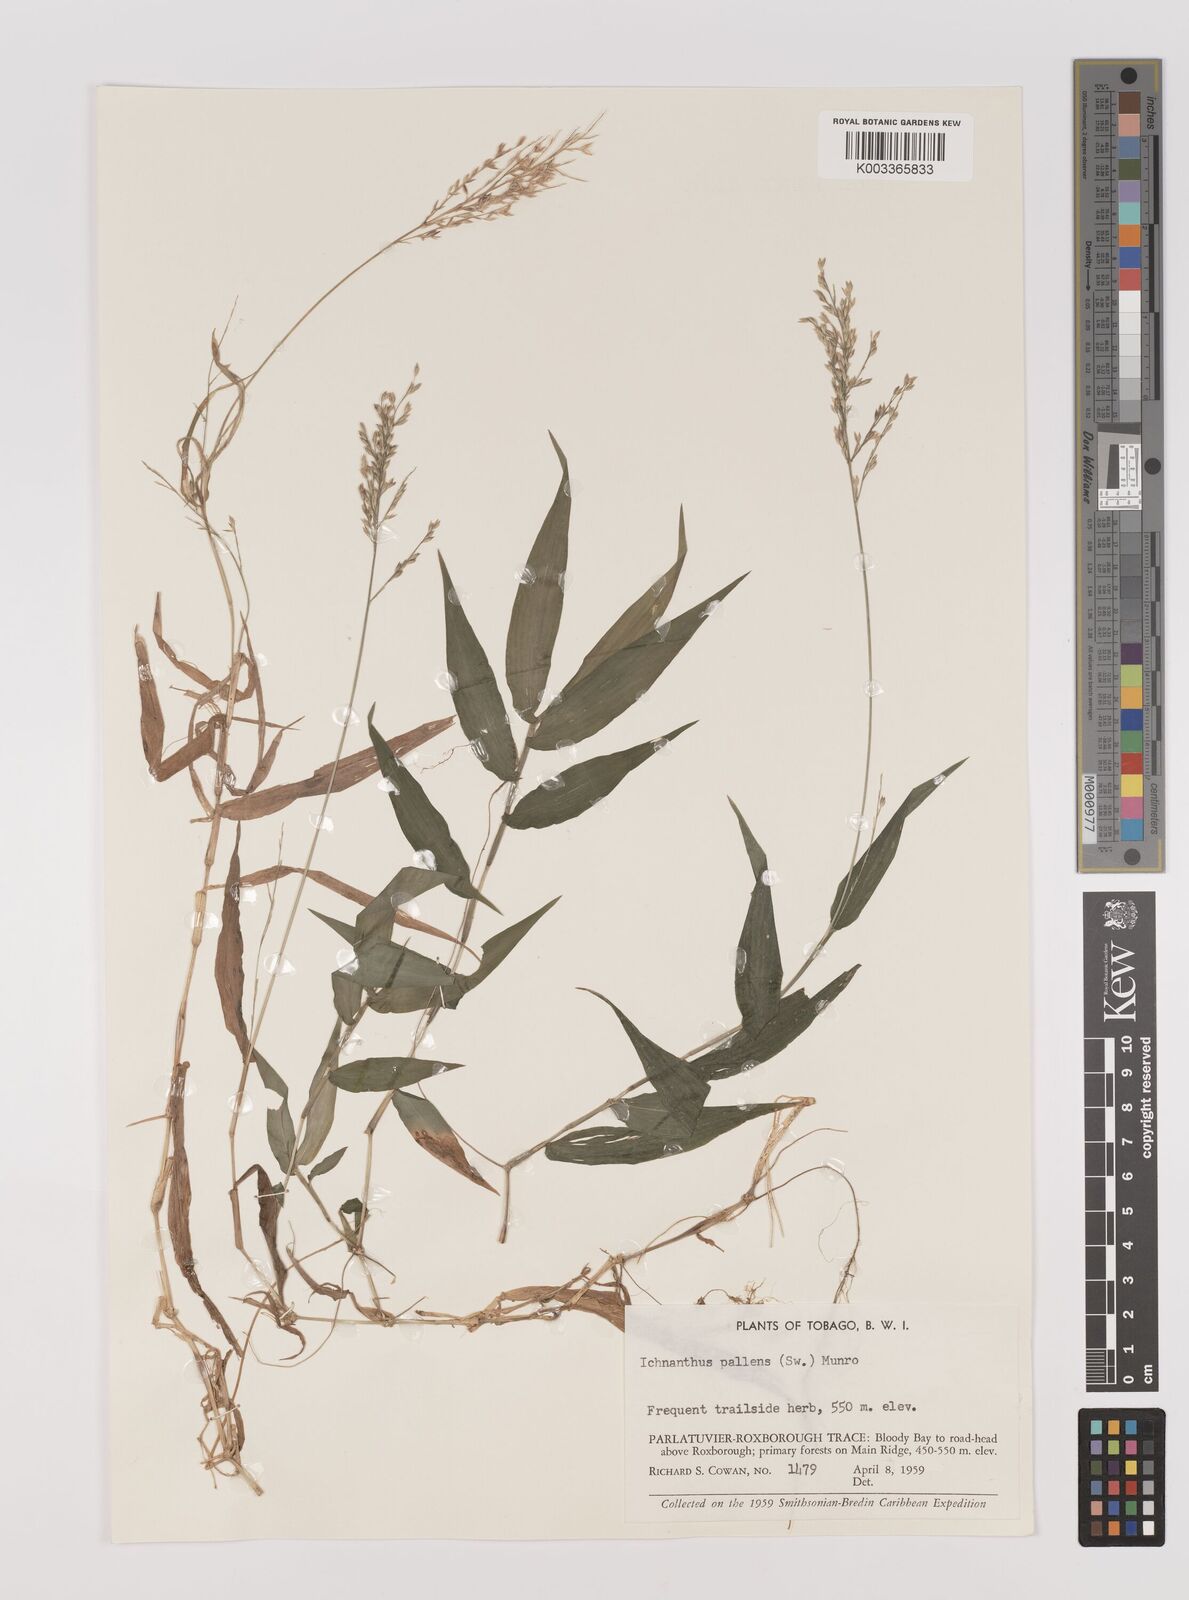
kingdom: Plantae
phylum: Tracheophyta
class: Liliopsida
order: Poales
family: Poaceae
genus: Ichnanthus
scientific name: Ichnanthus pallens
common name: Water grass
